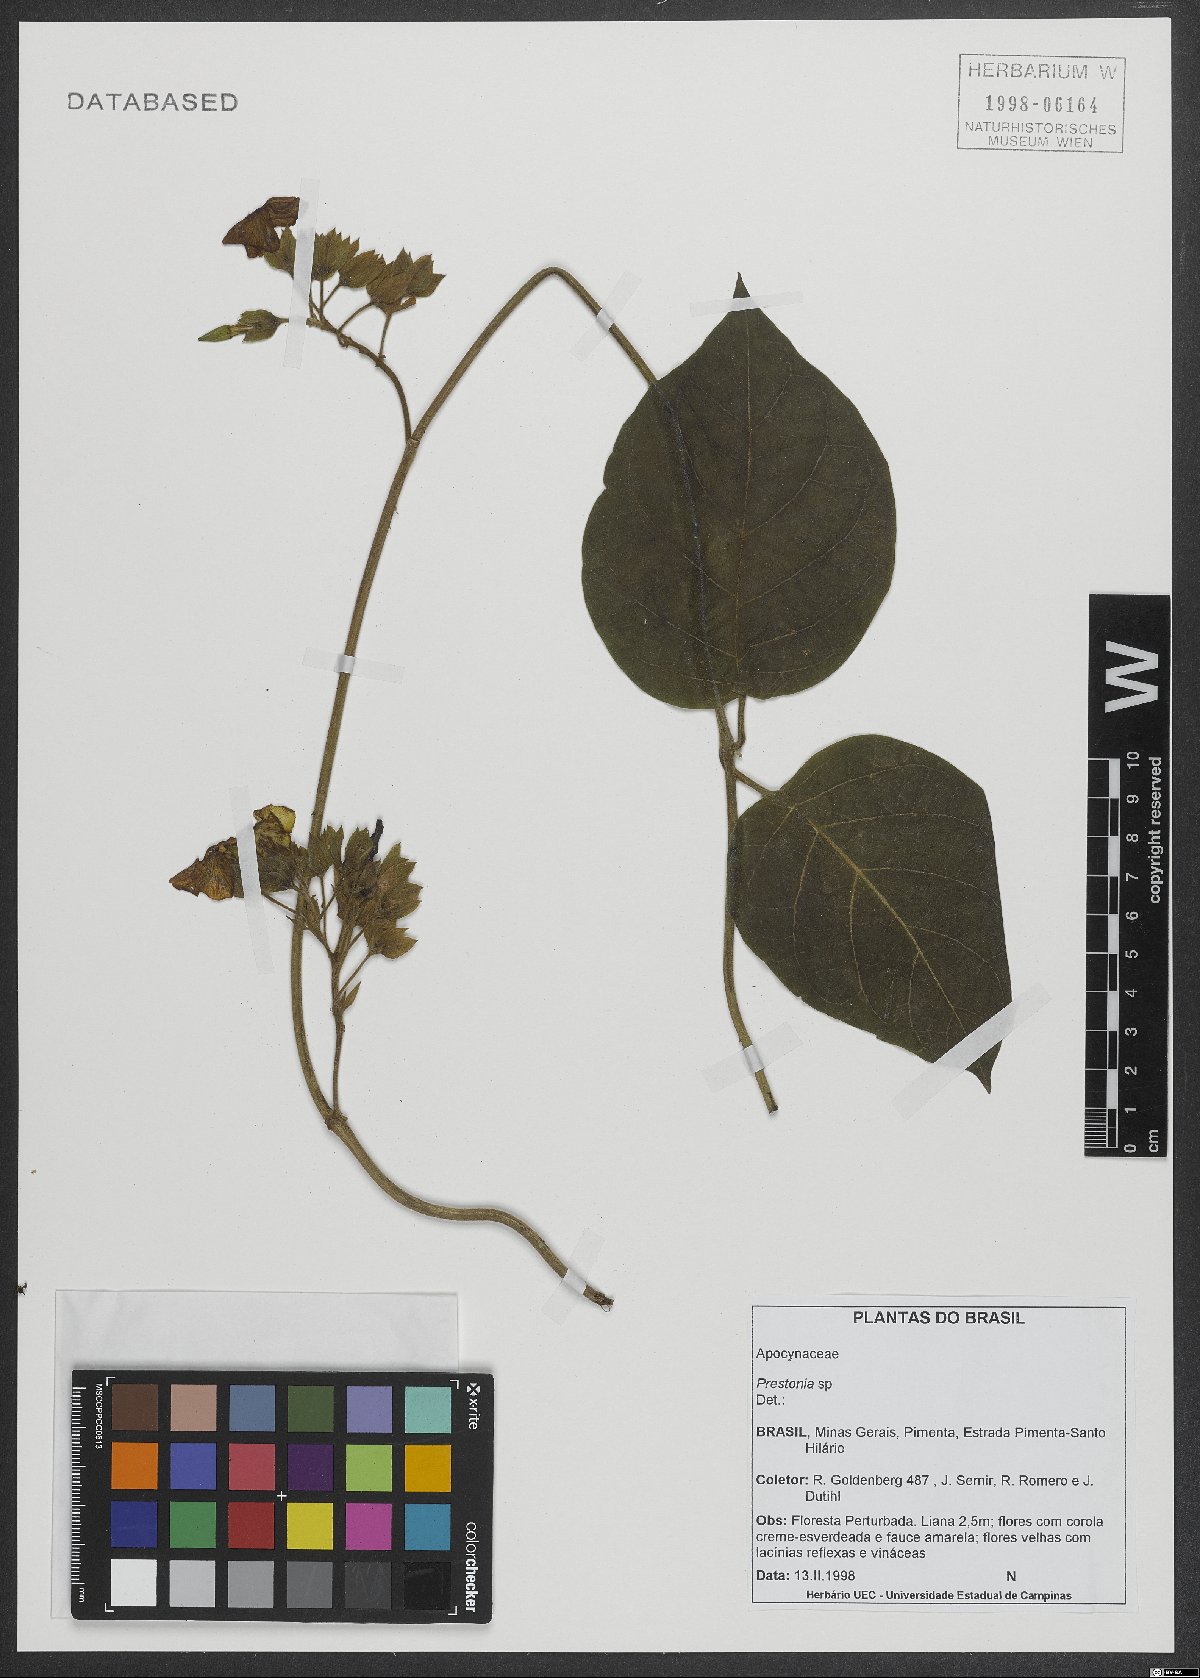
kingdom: Plantae
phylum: Tracheophyta
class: Magnoliopsida
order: Gentianales
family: Apocynaceae
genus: Prestonia
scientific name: Prestonia
